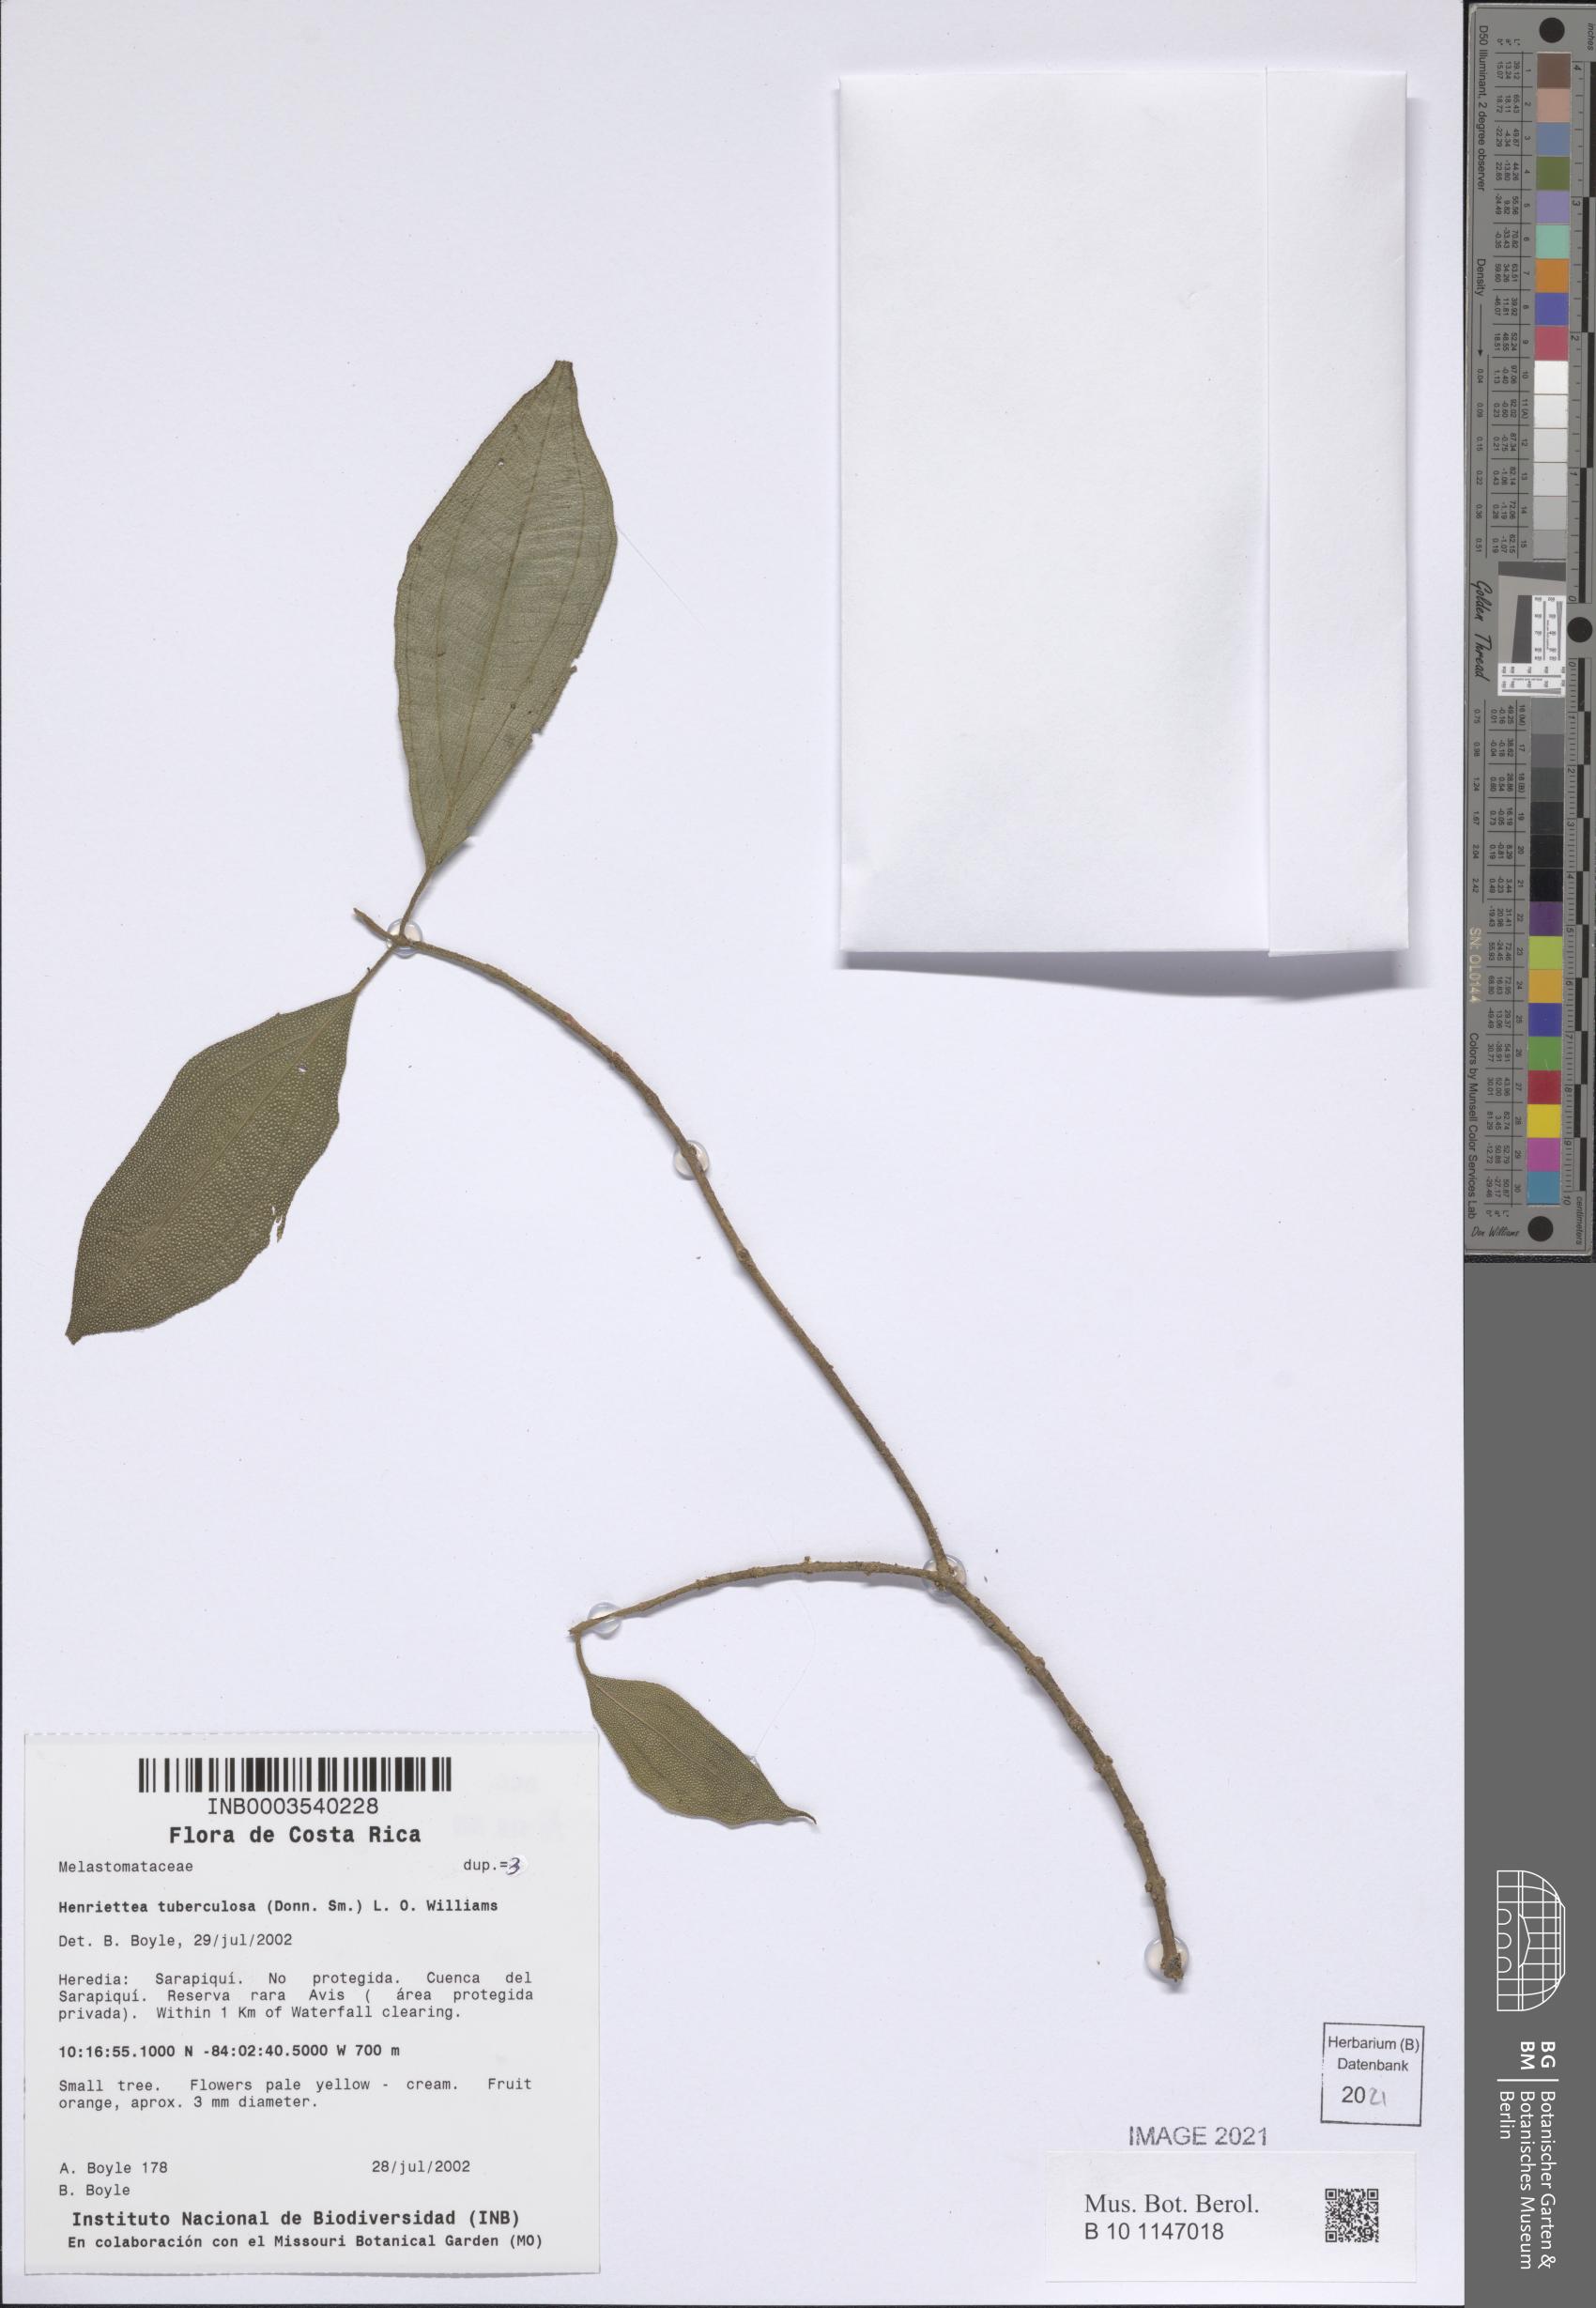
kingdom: Plantae
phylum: Tracheophyta
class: Magnoliopsida
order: Myrtales
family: Melastomataceae
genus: Henriettea
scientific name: Henriettea tuberculosa
